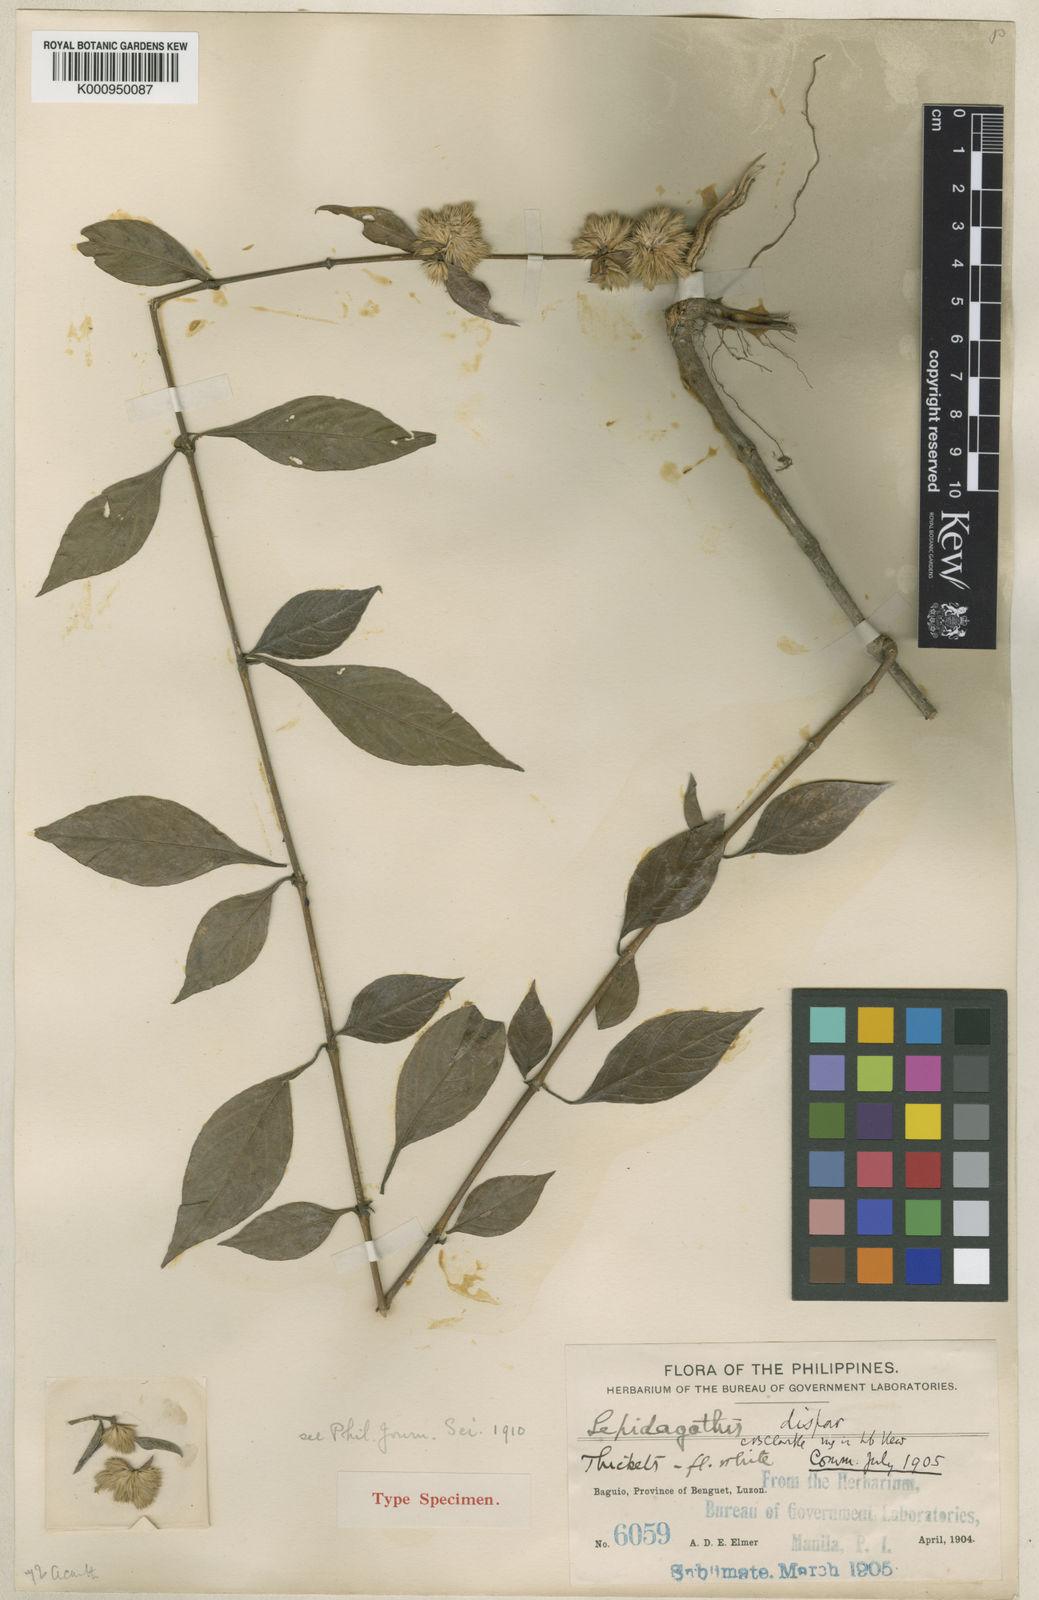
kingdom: Plantae
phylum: Tracheophyta
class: Magnoliopsida
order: Lamiales
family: Acanthaceae
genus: Lepidagathis
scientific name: Lepidagathis dispar
